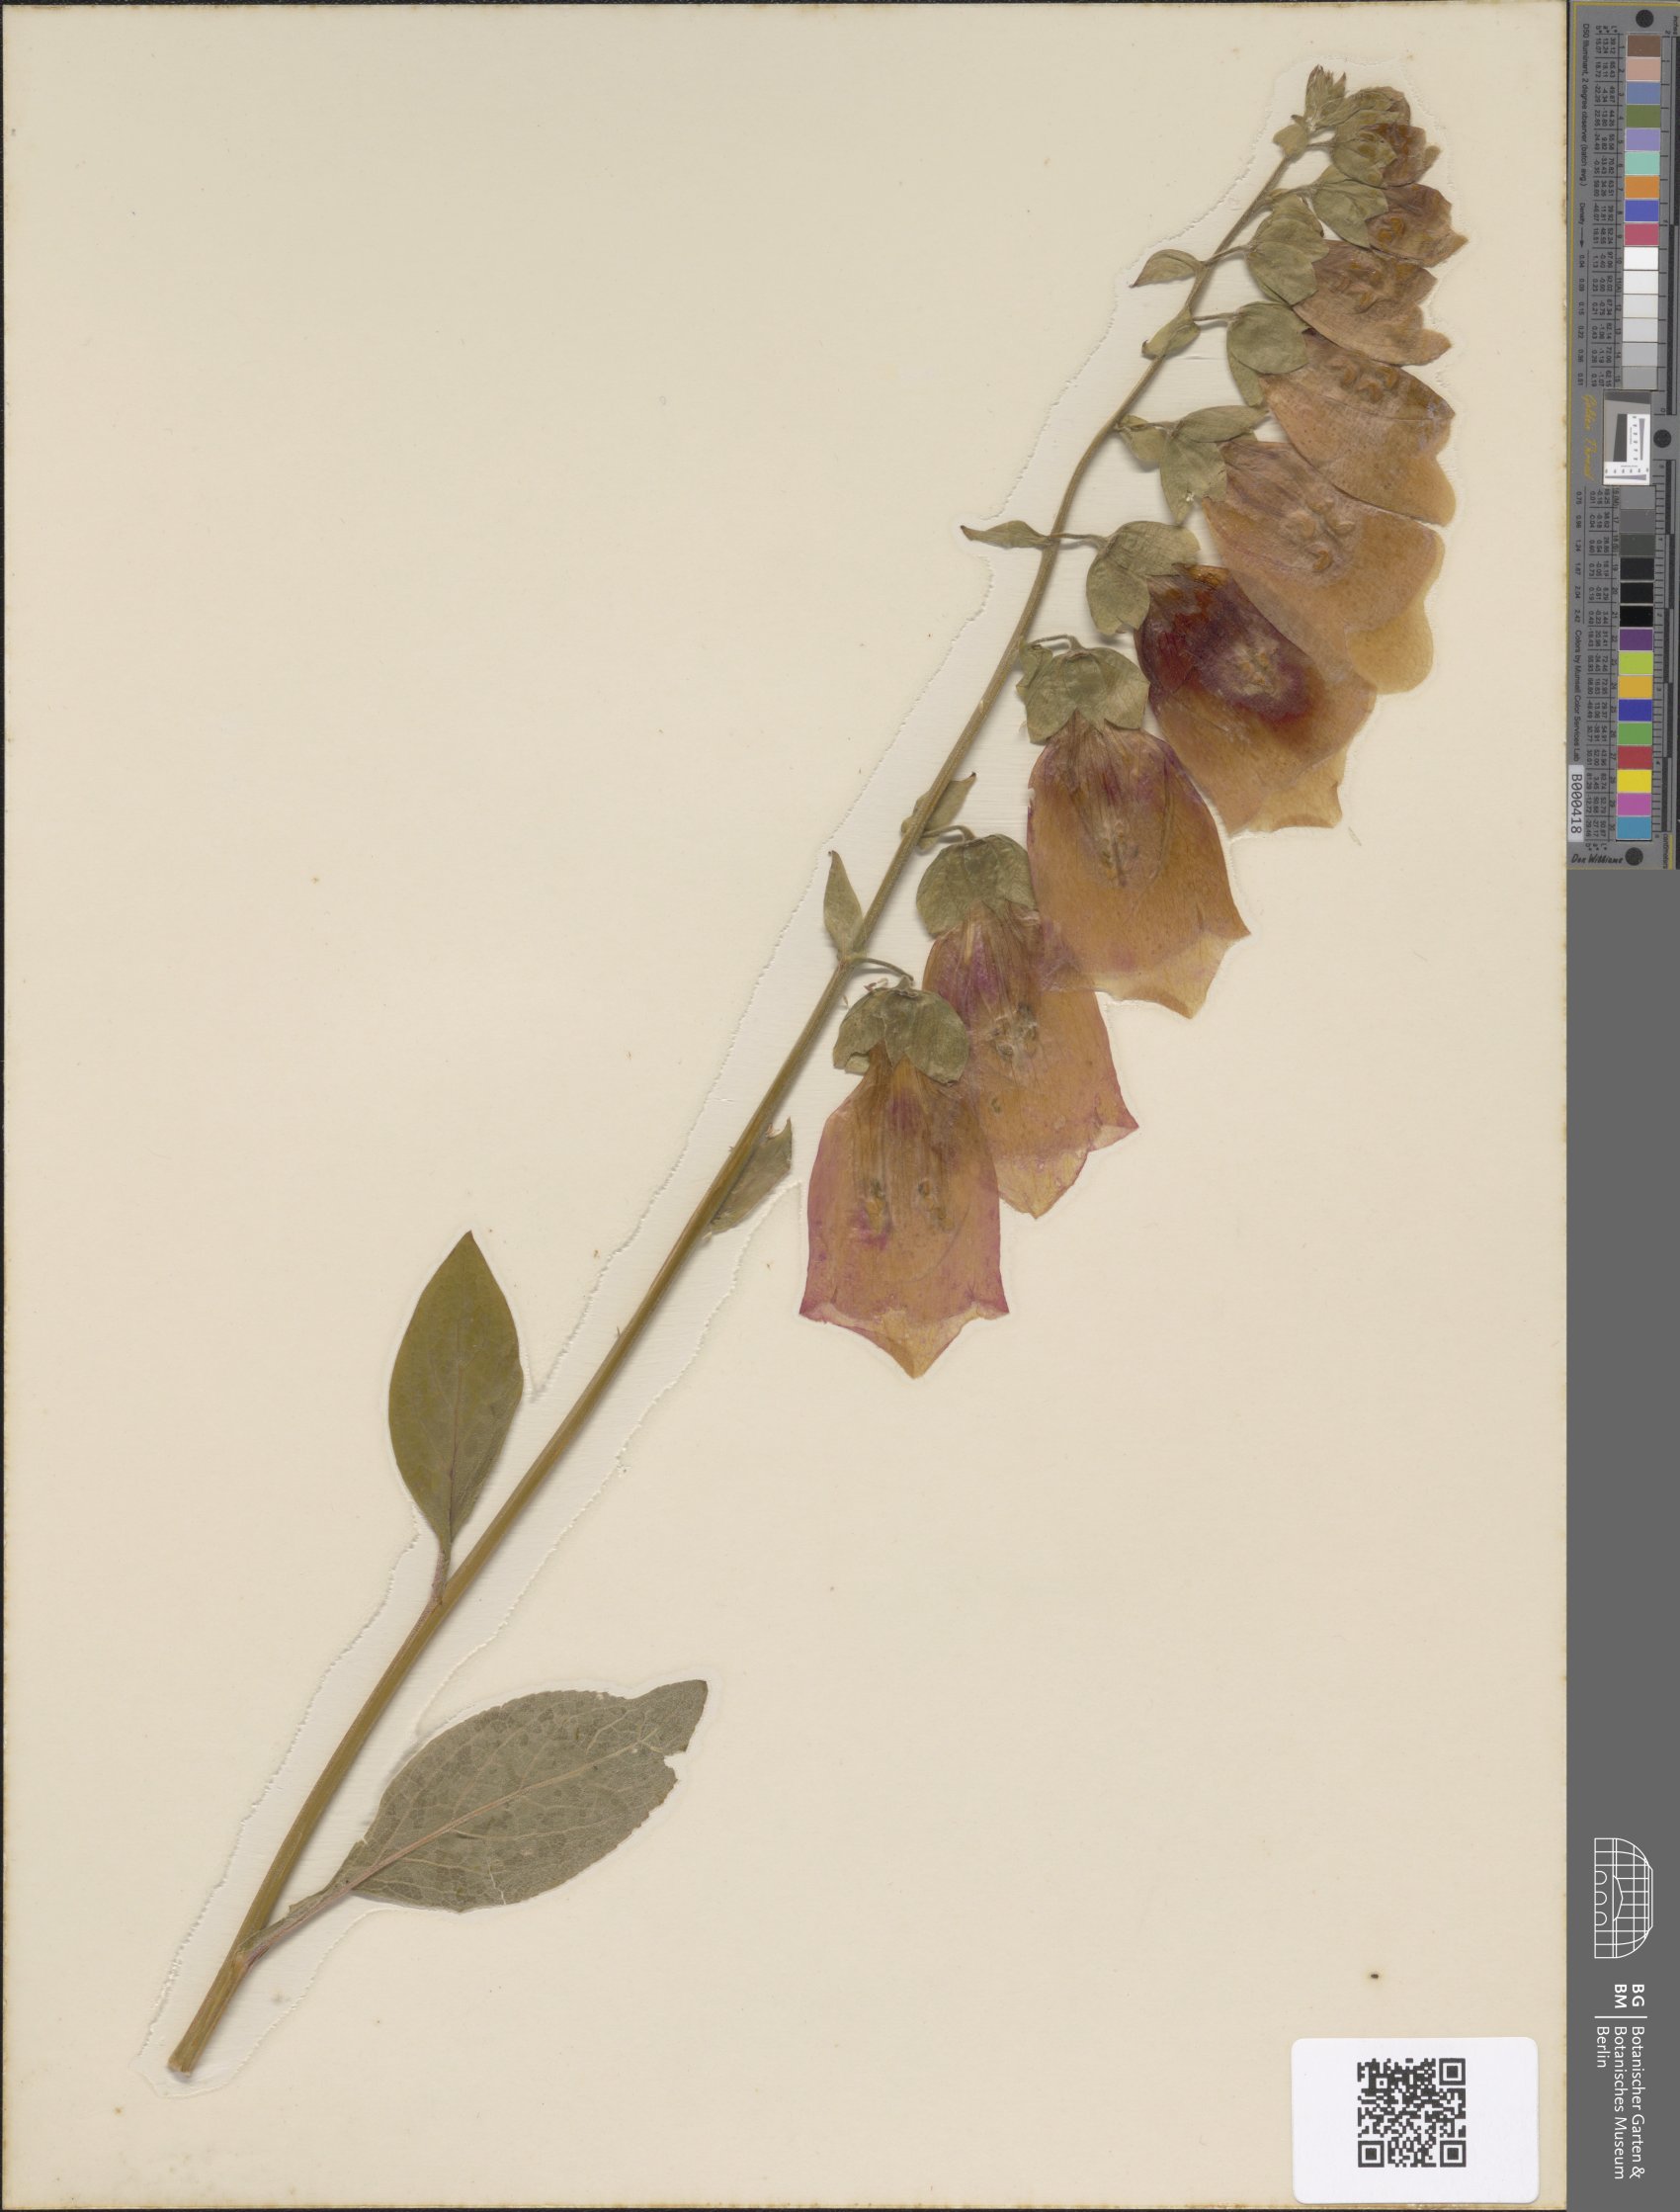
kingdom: Plantae
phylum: Tracheophyta
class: Magnoliopsida
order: Lamiales
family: Plantaginaceae
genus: Digitalis
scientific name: Digitalis purpurea
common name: Foxglove
